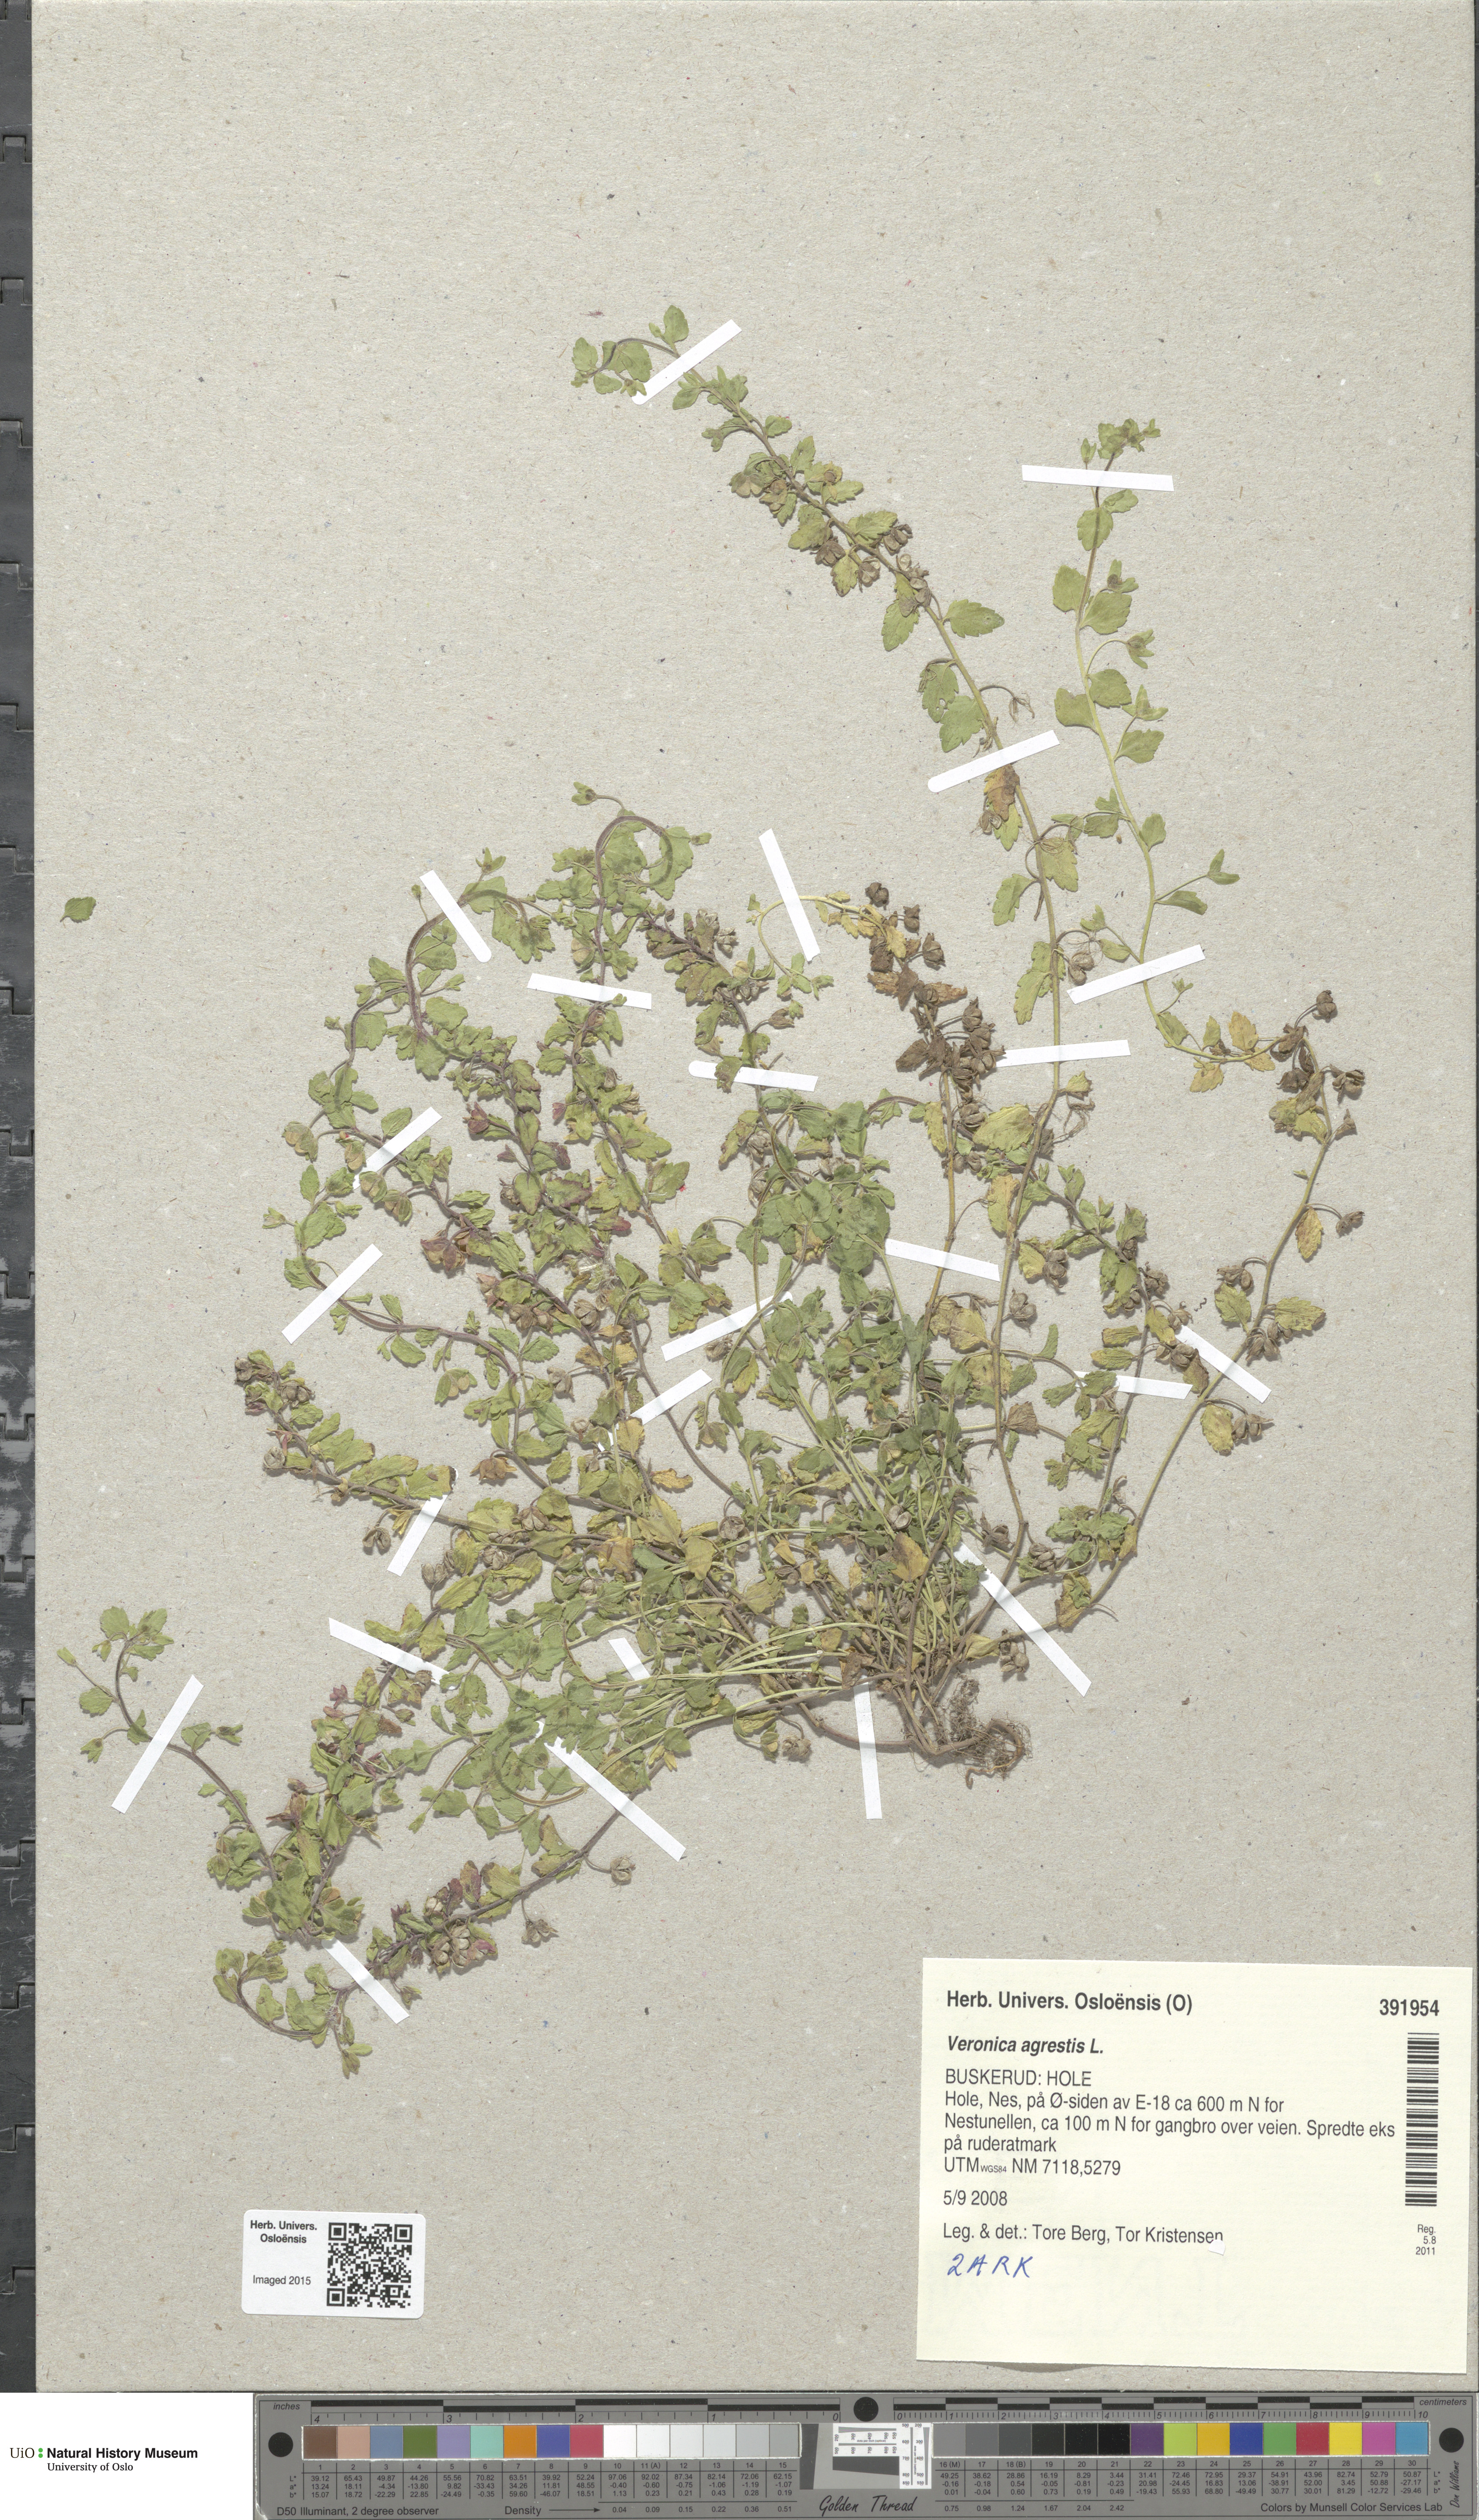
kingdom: Plantae
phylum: Tracheophyta
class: Magnoliopsida
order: Lamiales
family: Plantaginaceae
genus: Veronica
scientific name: Veronica agrestis
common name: Green field-speedwell
